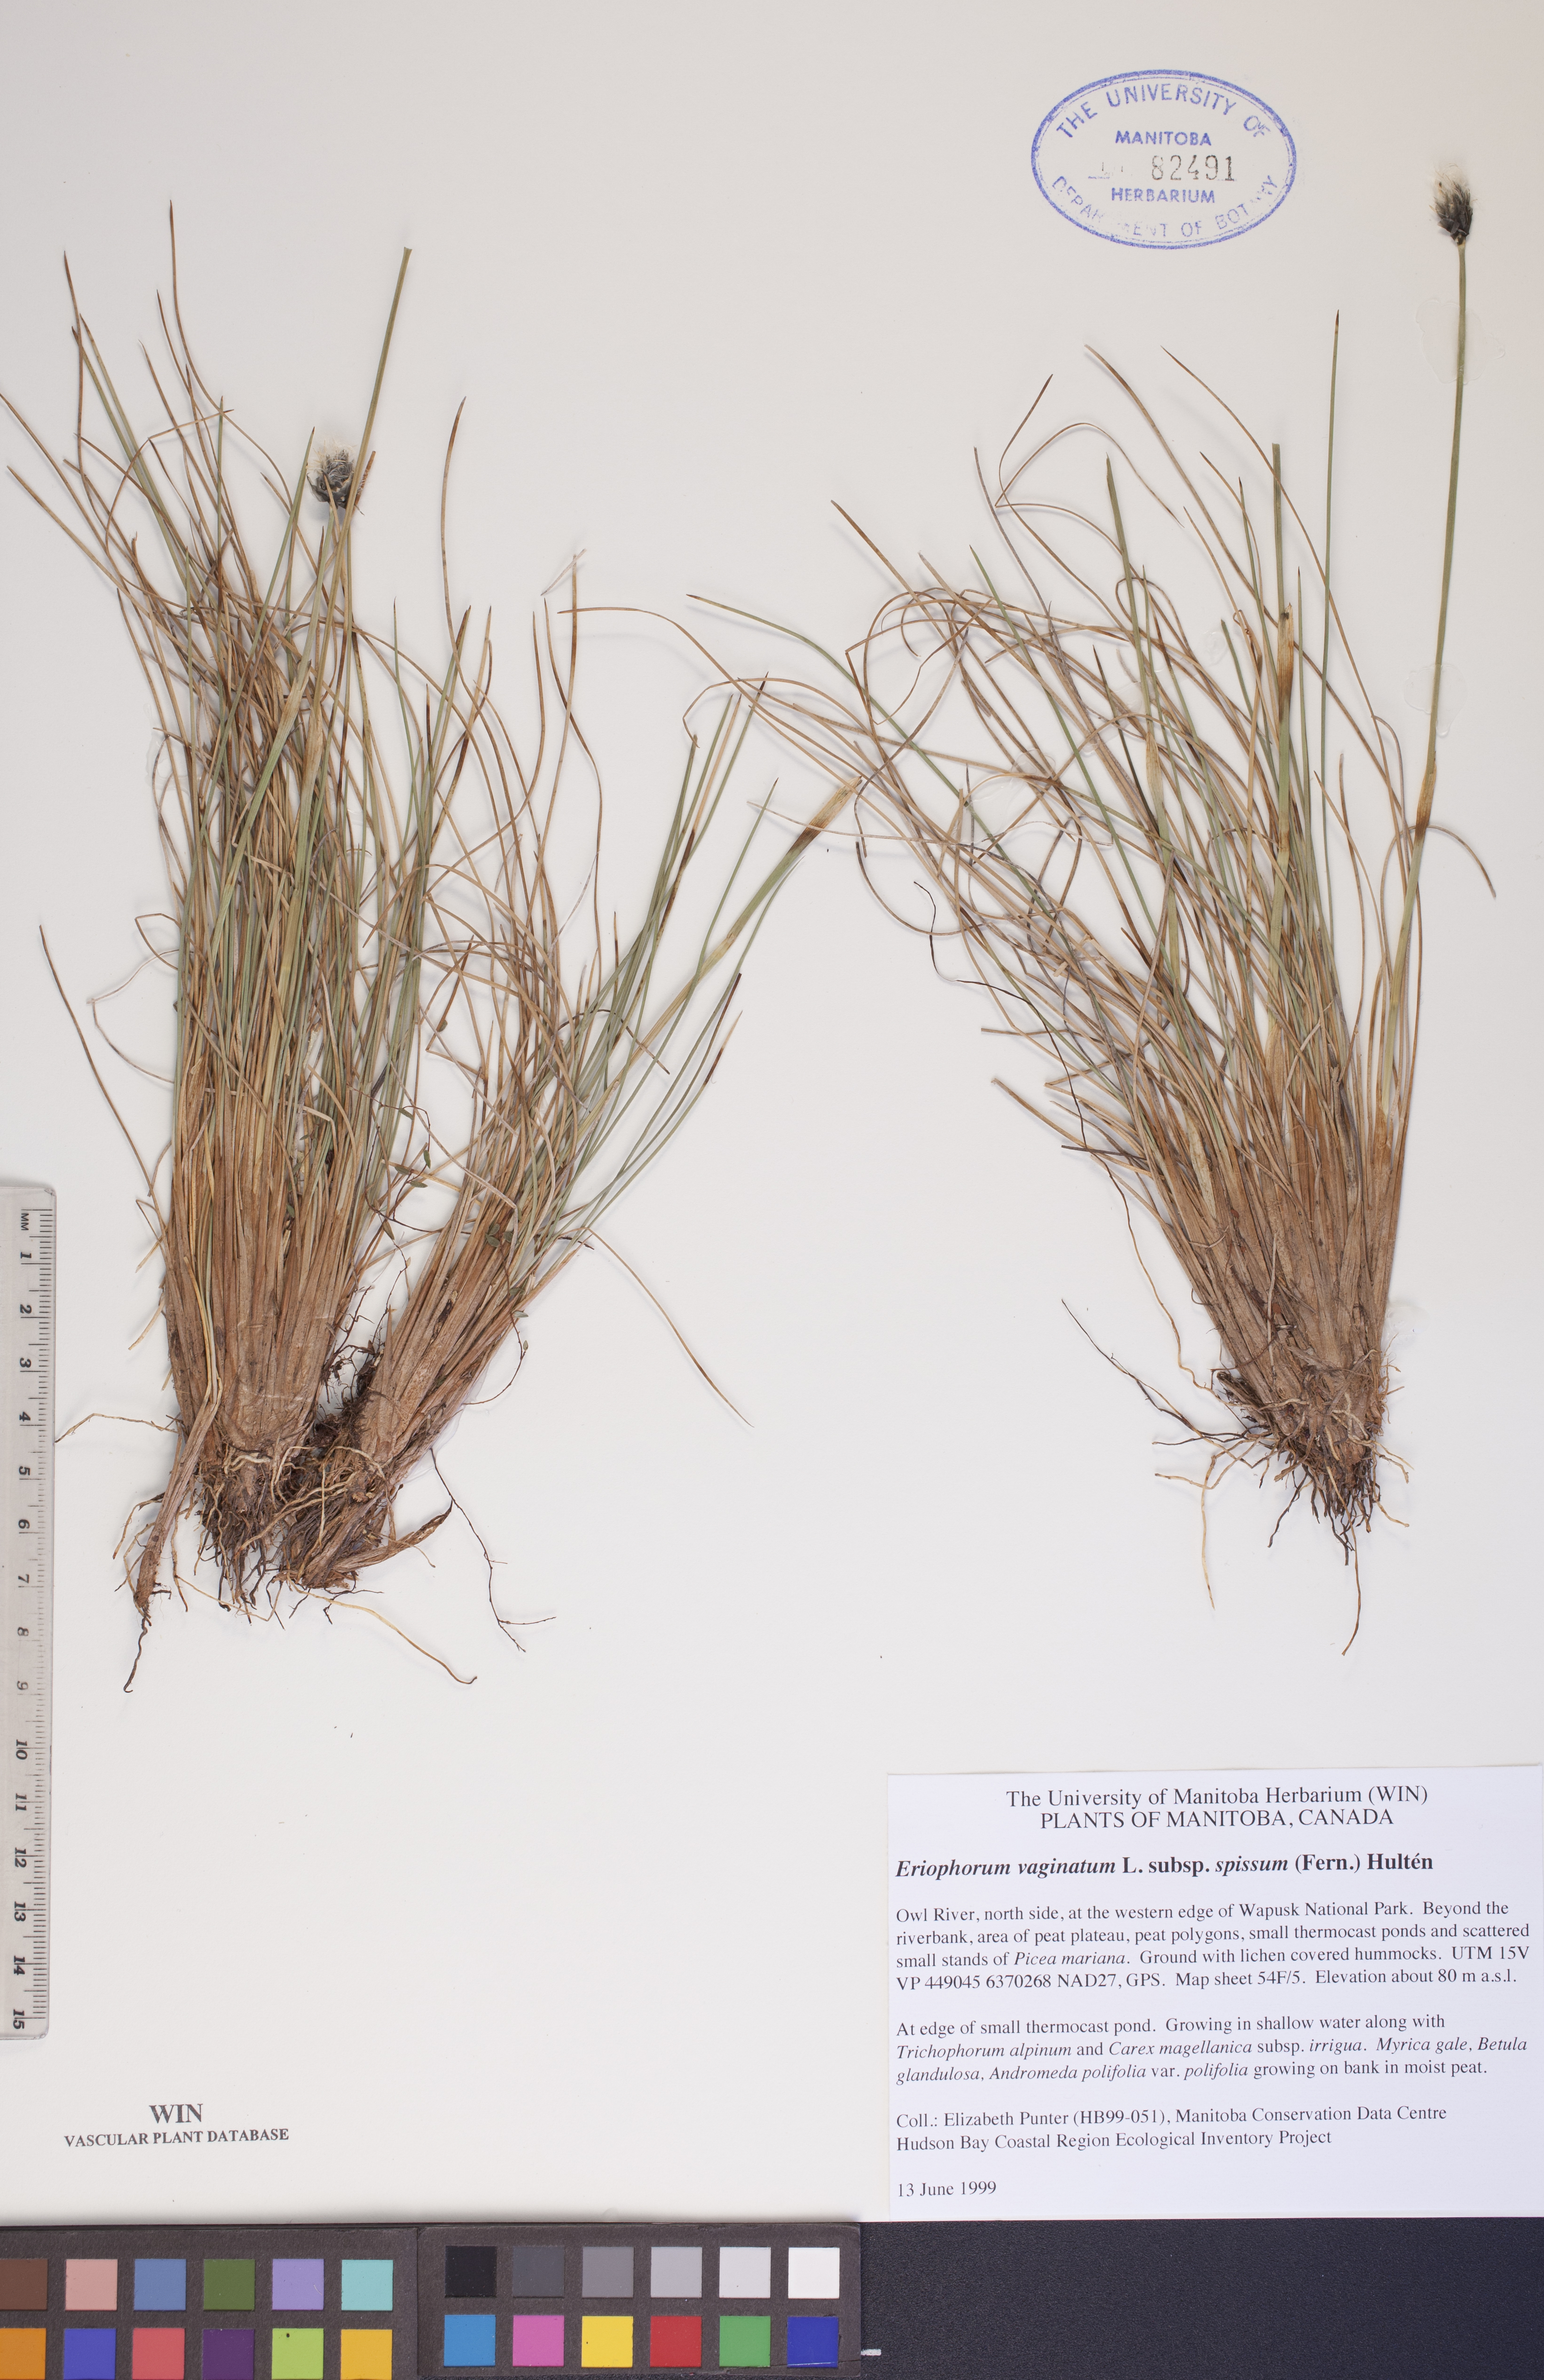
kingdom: Plantae
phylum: Tracheophyta
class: Liliopsida
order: Poales
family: Cyperaceae
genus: Eriophorum
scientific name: Eriophorum vaginatum
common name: Hare's-tail cottongrass
